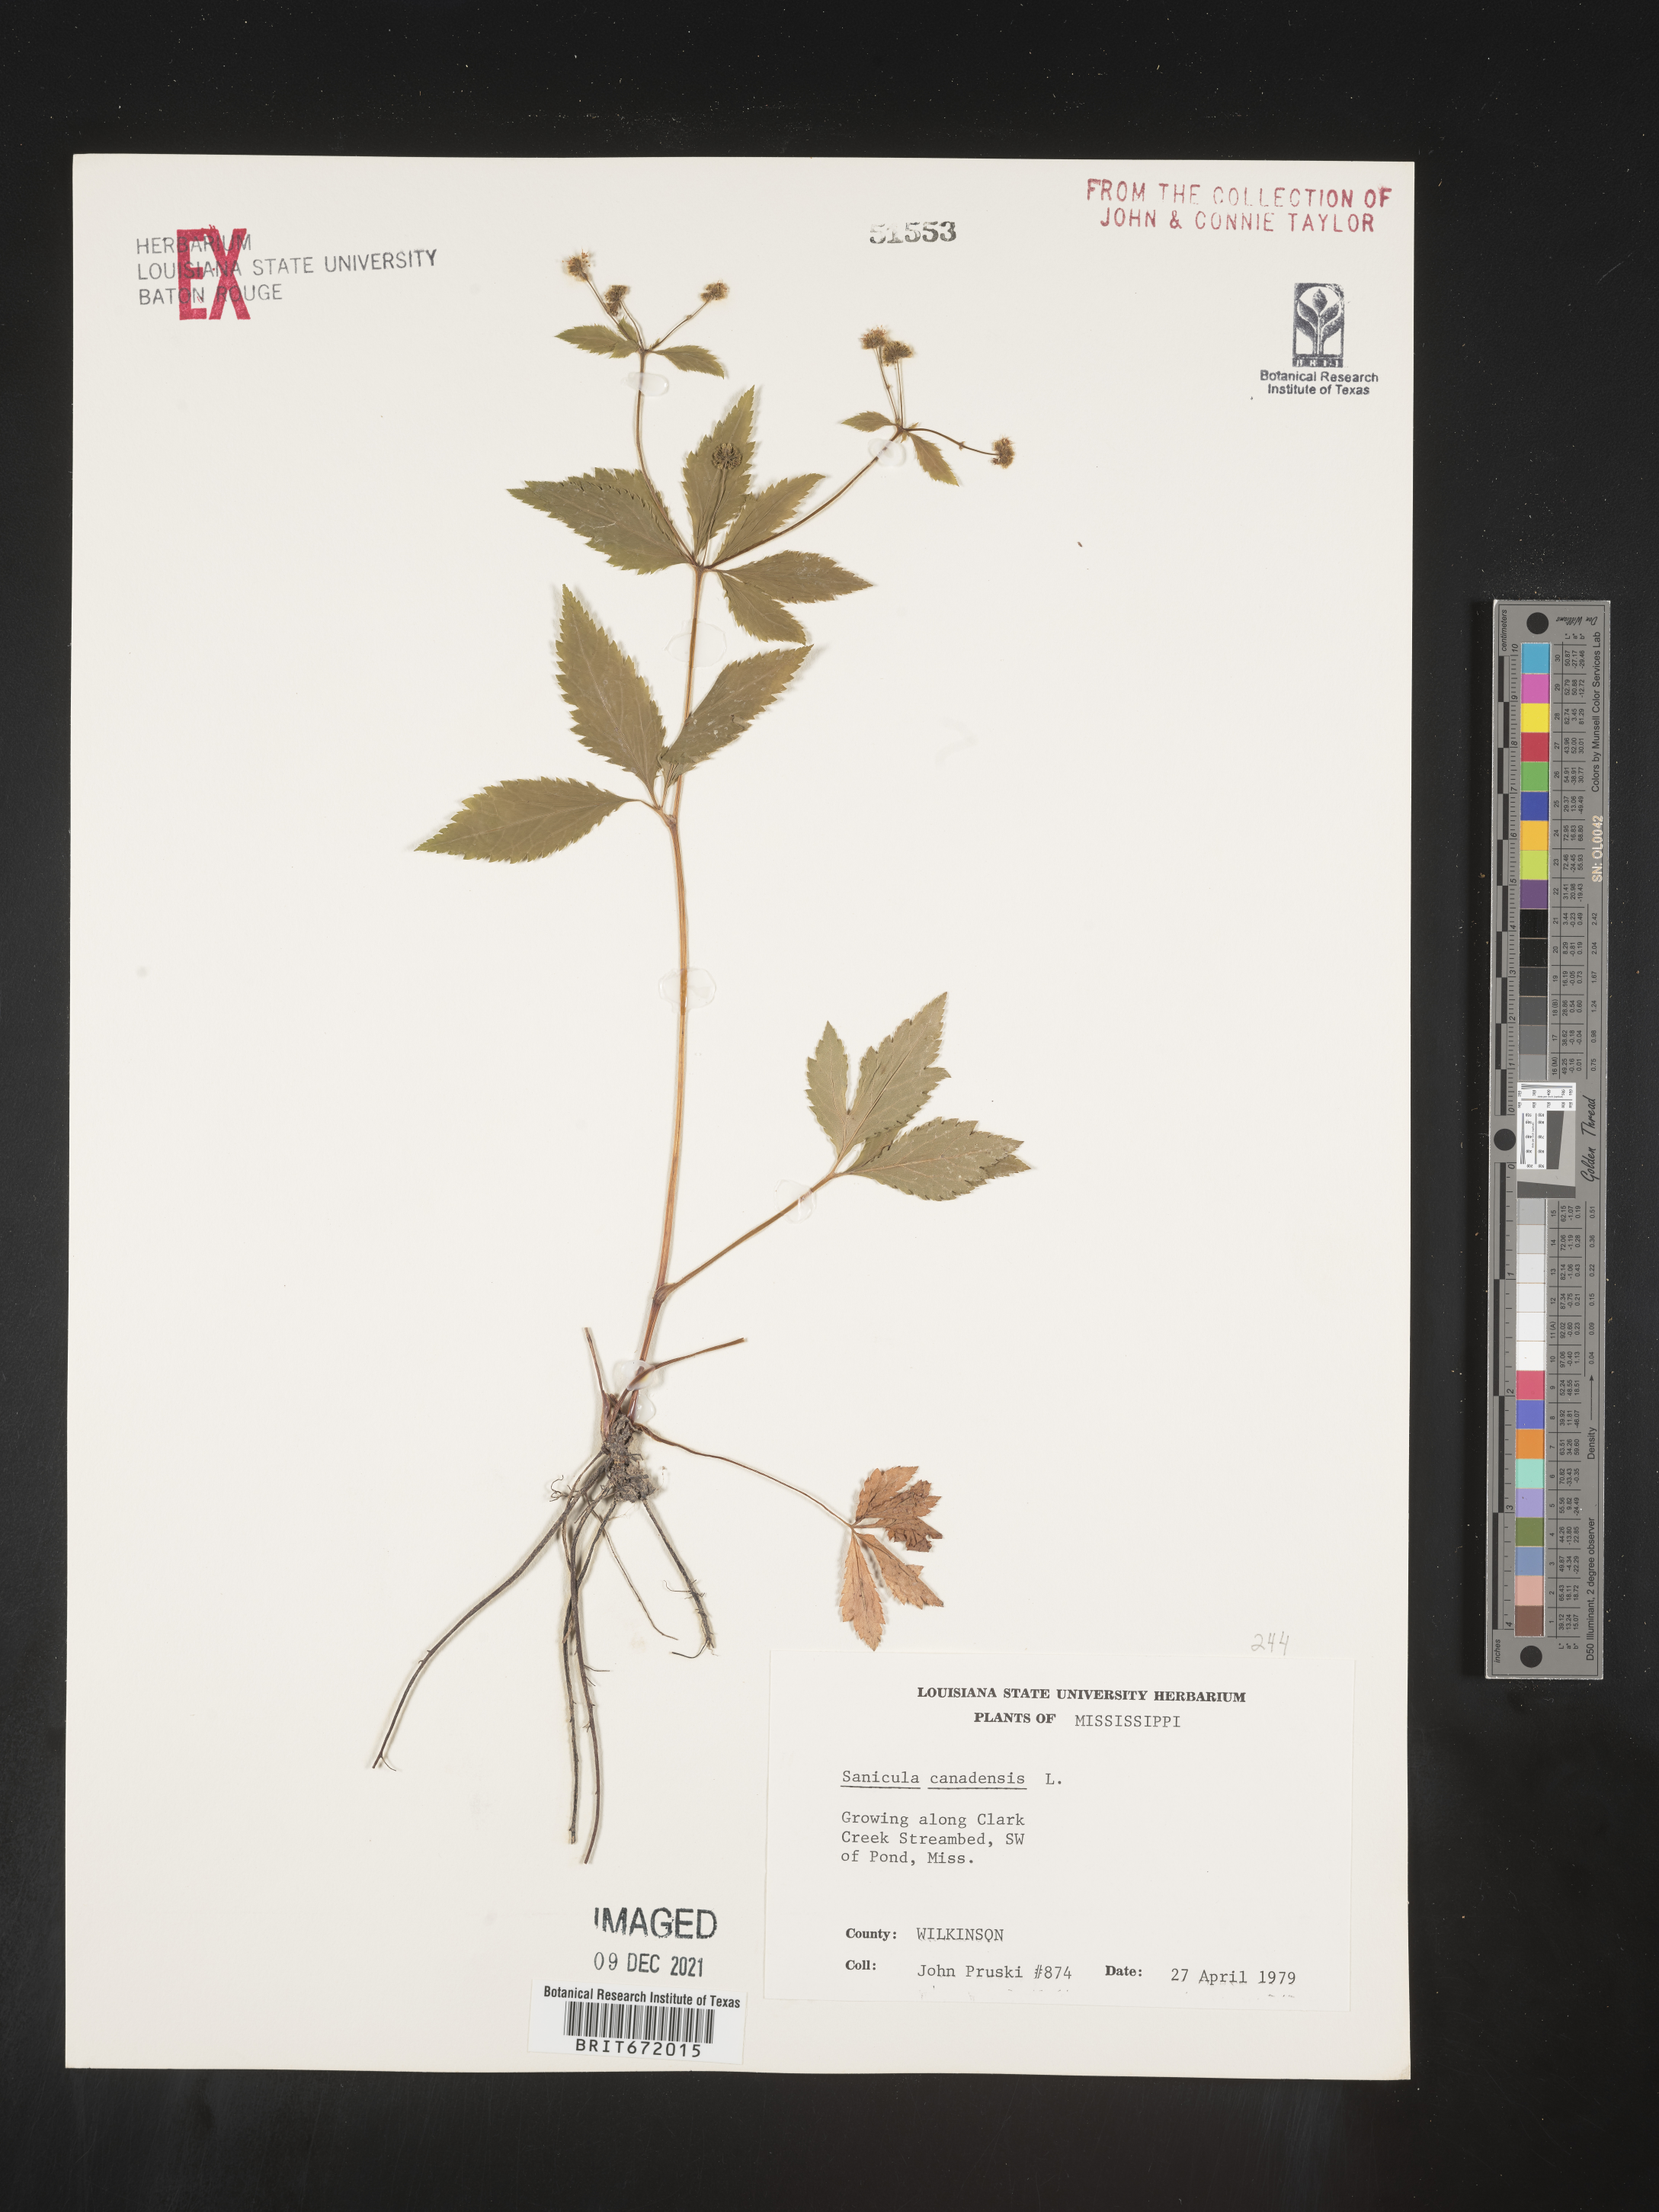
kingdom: Plantae
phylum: Tracheophyta
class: Magnoliopsida
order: Apiales
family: Apiaceae
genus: Sanicula
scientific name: Sanicula canadensis
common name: Canada sanicle
